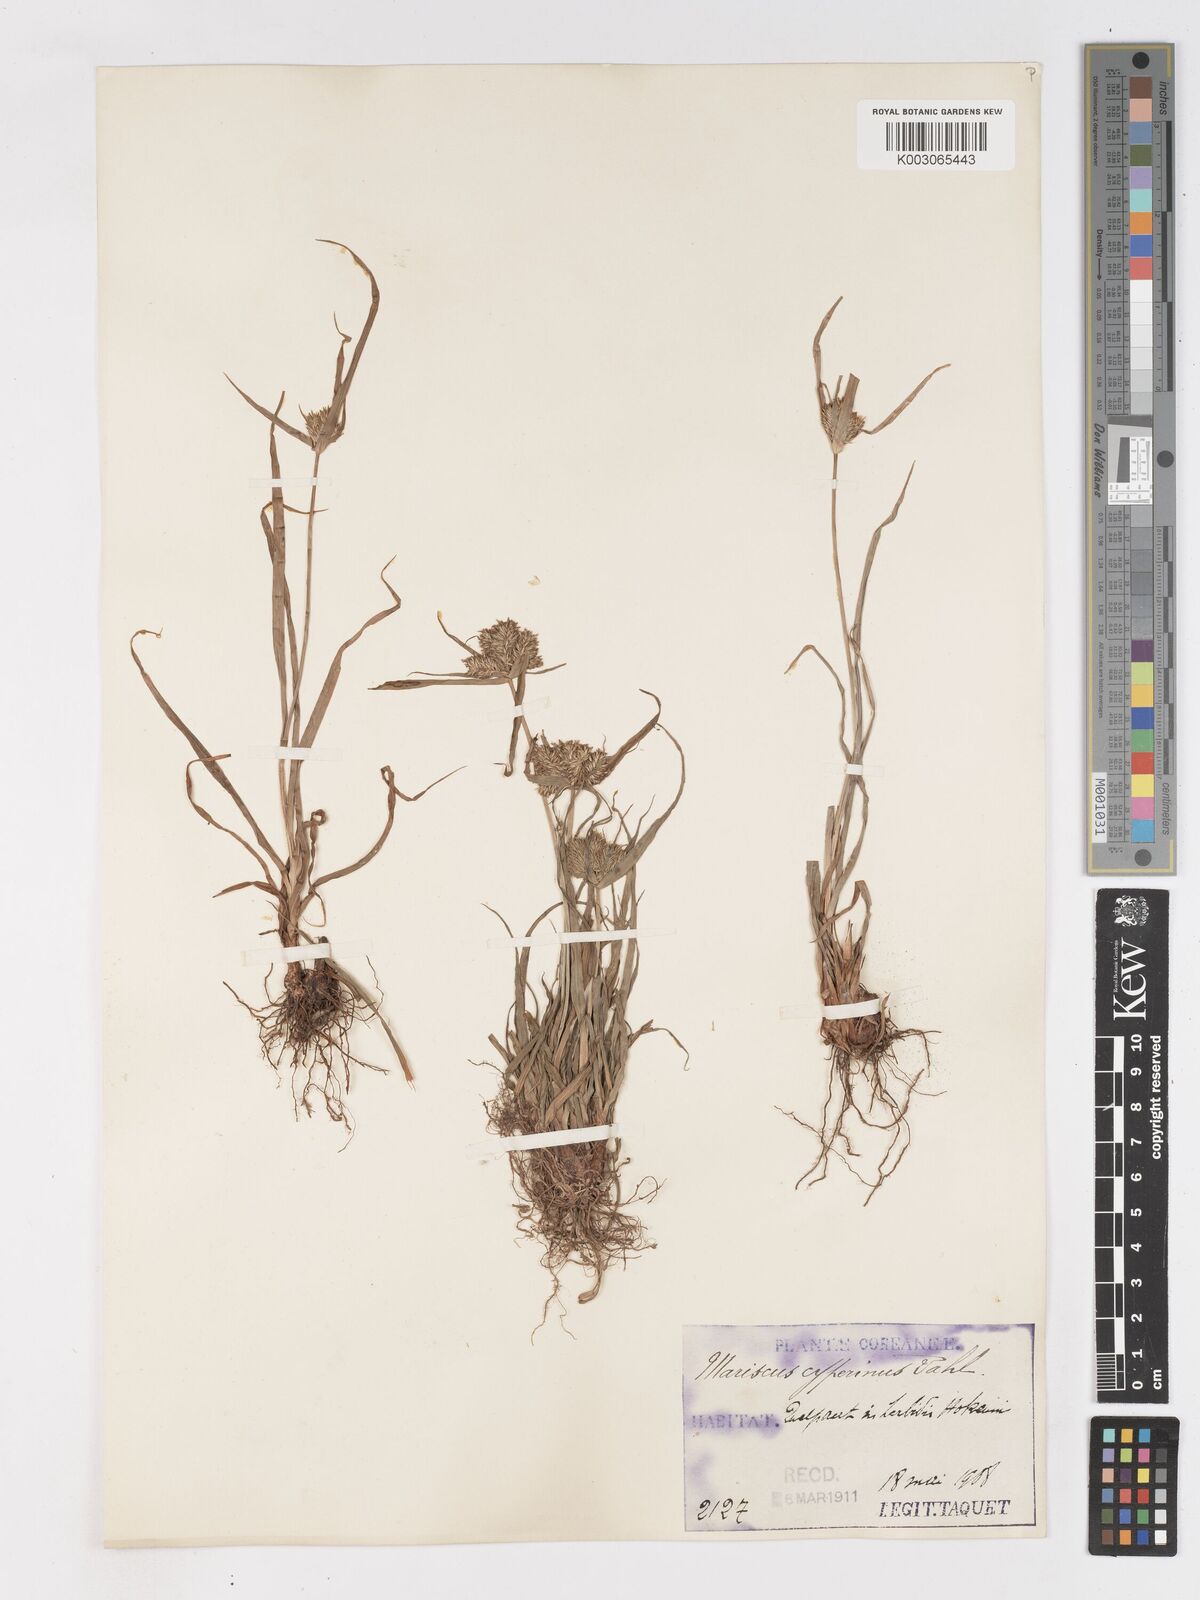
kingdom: Plantae
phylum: Tracheophyta
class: Liliopsida
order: Poales
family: Cyperaceae
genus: Cyperus
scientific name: Cyperus cyperinus
